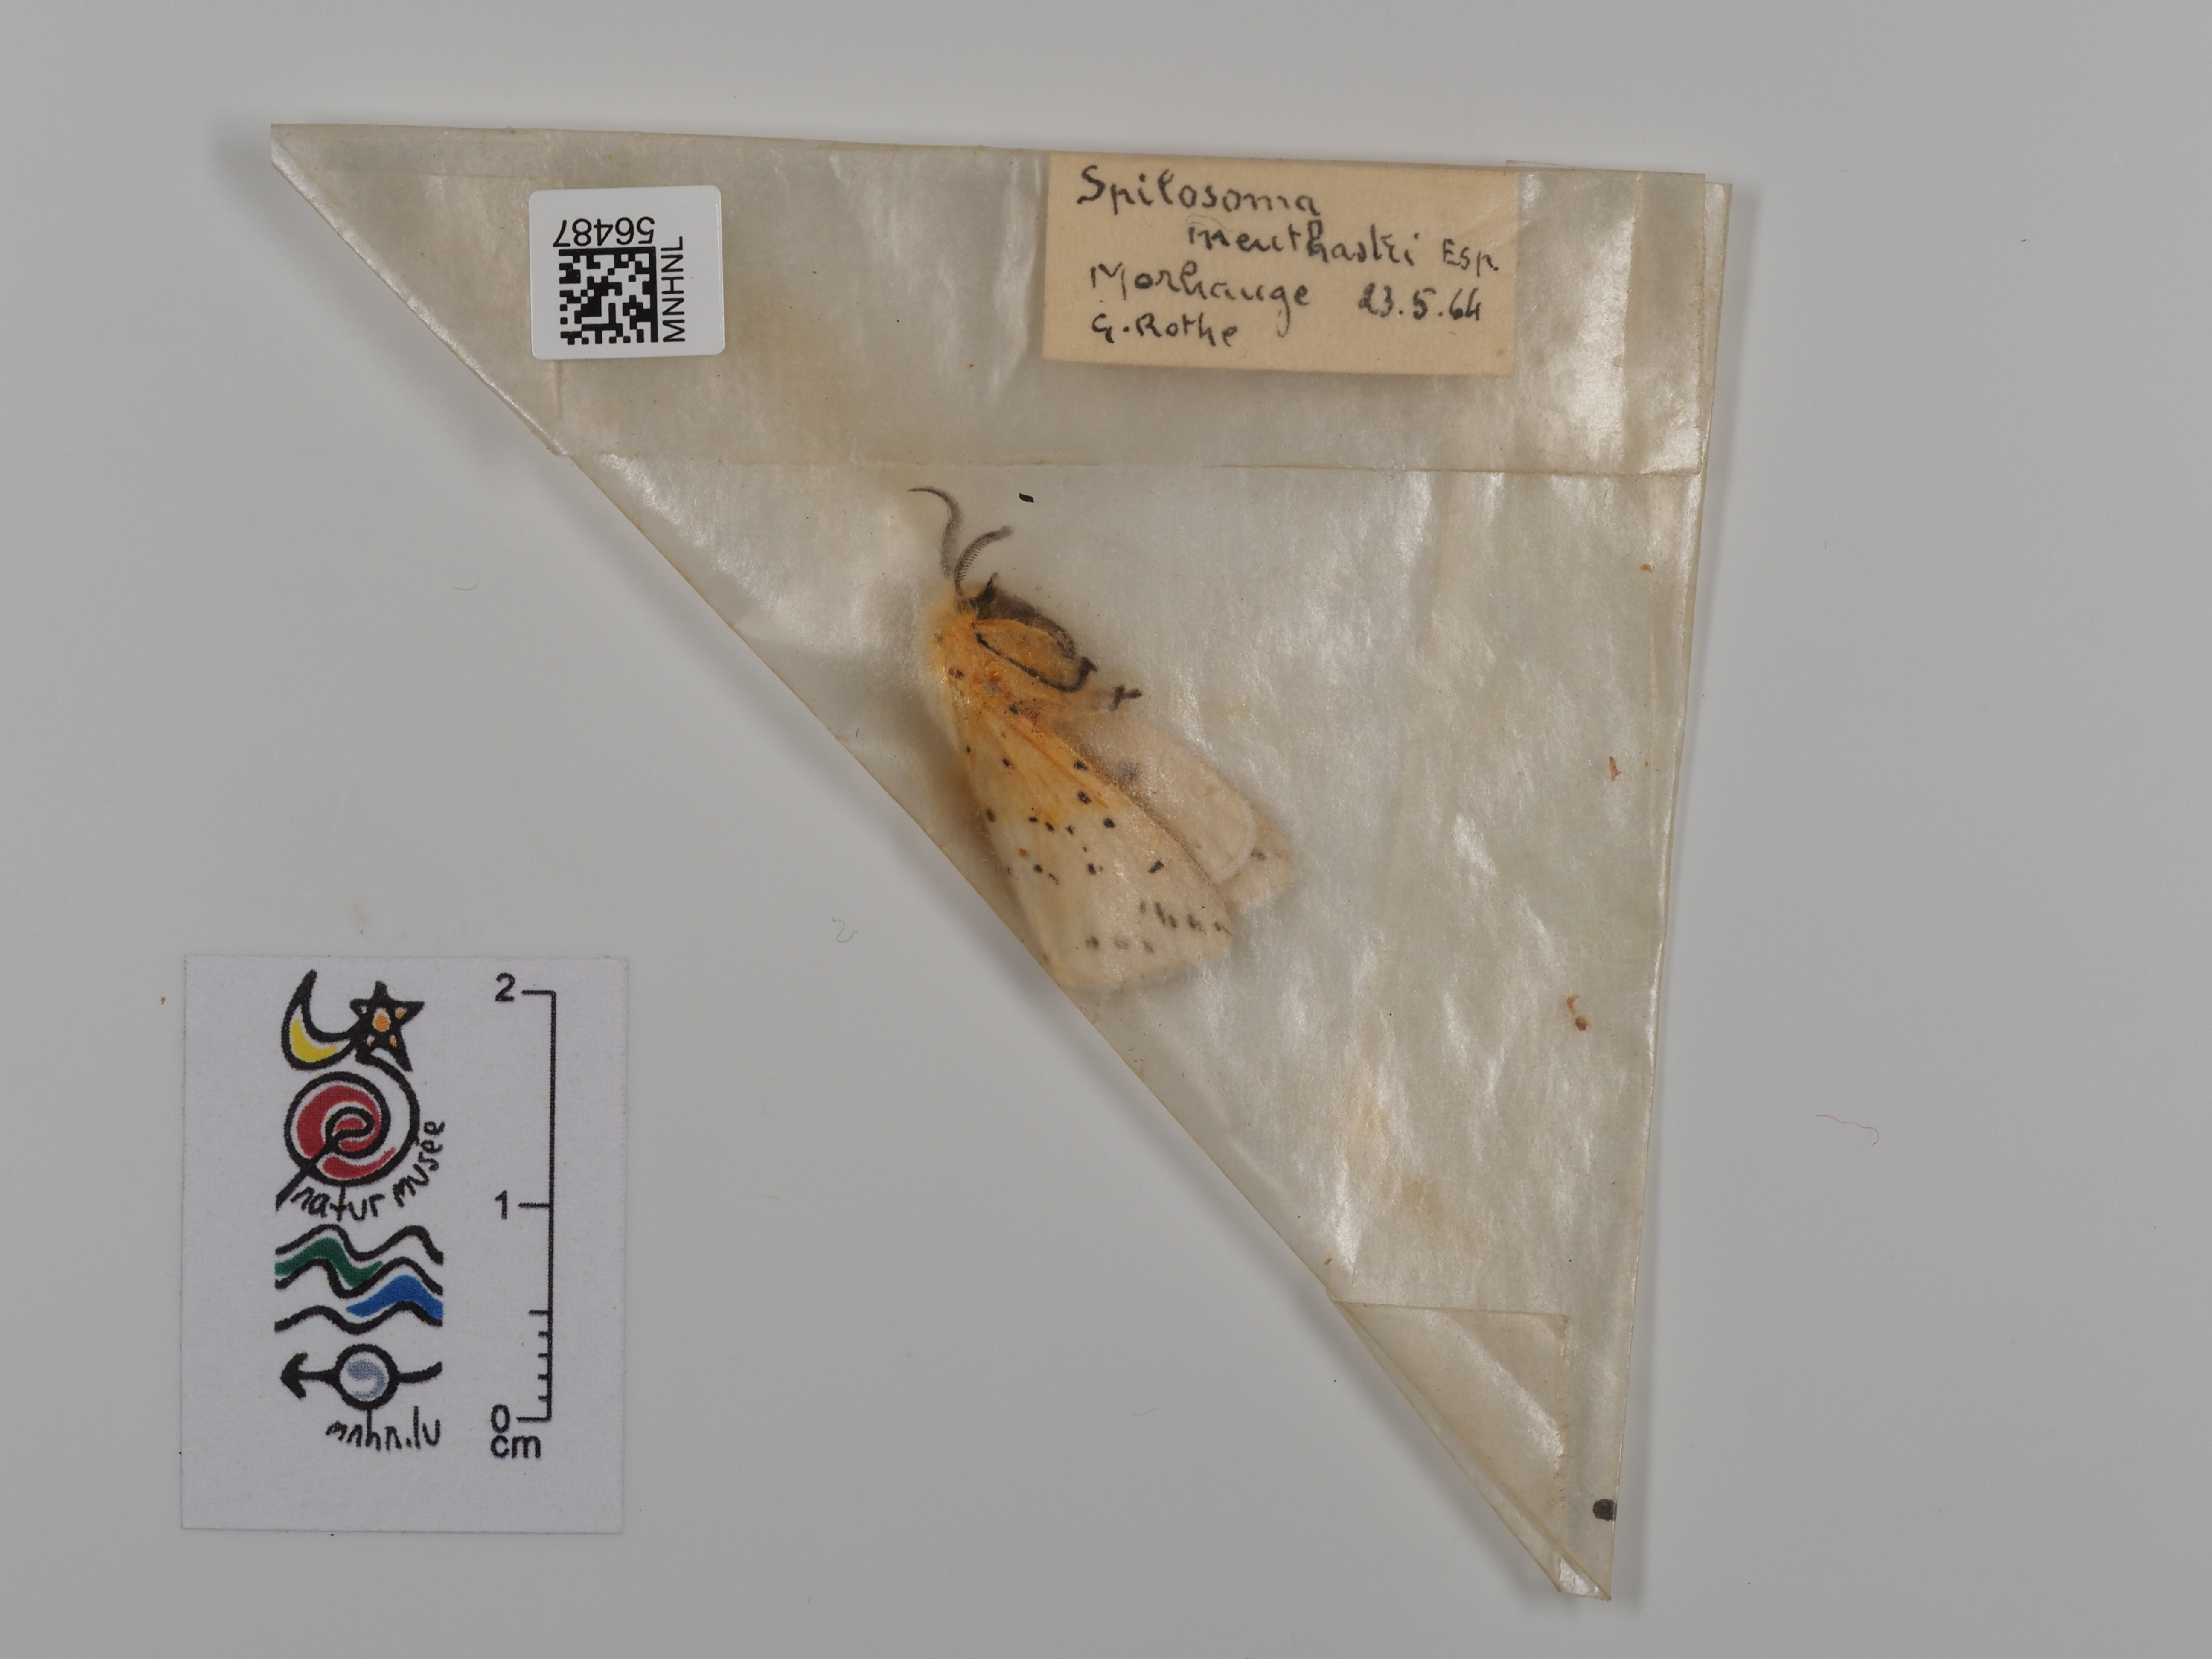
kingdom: Animalia
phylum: Arthropoda
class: Insecta
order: Lepidoptera
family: Erebidae
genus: Spilosoma
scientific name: Spilosoma lubricipeda
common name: White ermine
